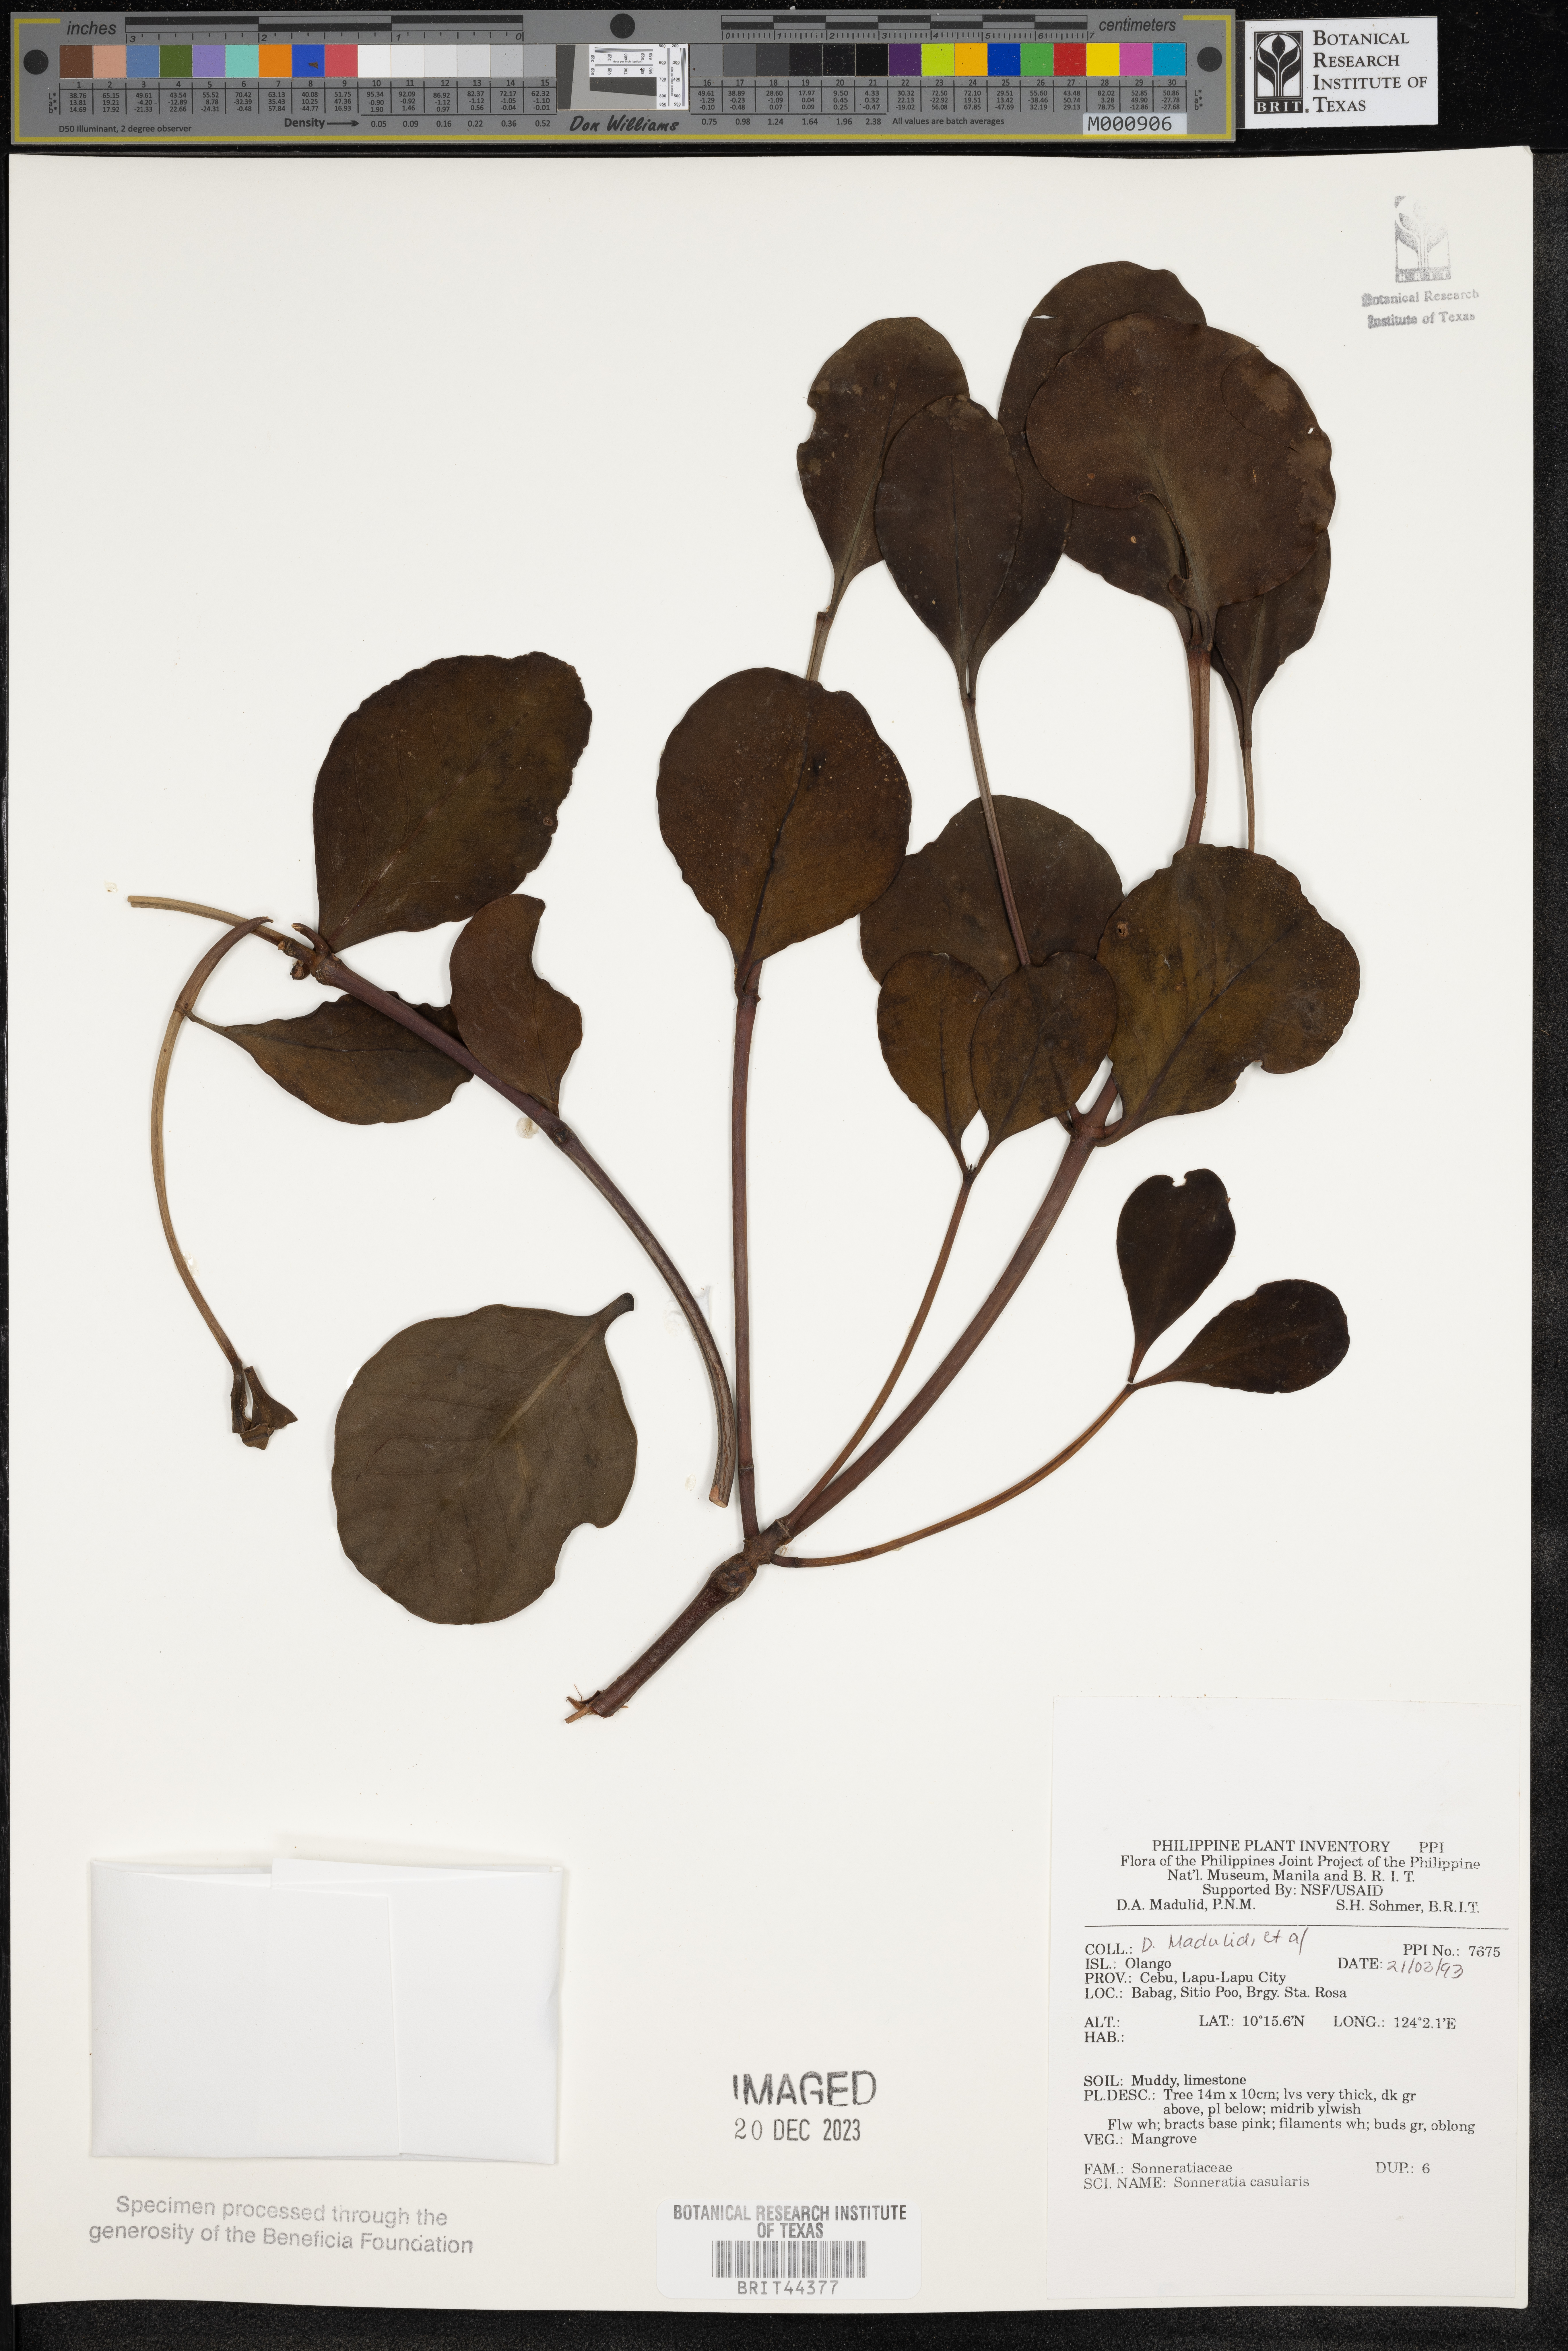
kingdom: Plantae
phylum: Tracheophyta
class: Magnoliopsida
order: Myrtales
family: Lythraceae
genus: Sonneratia
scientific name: Sonneratia caseolaris
